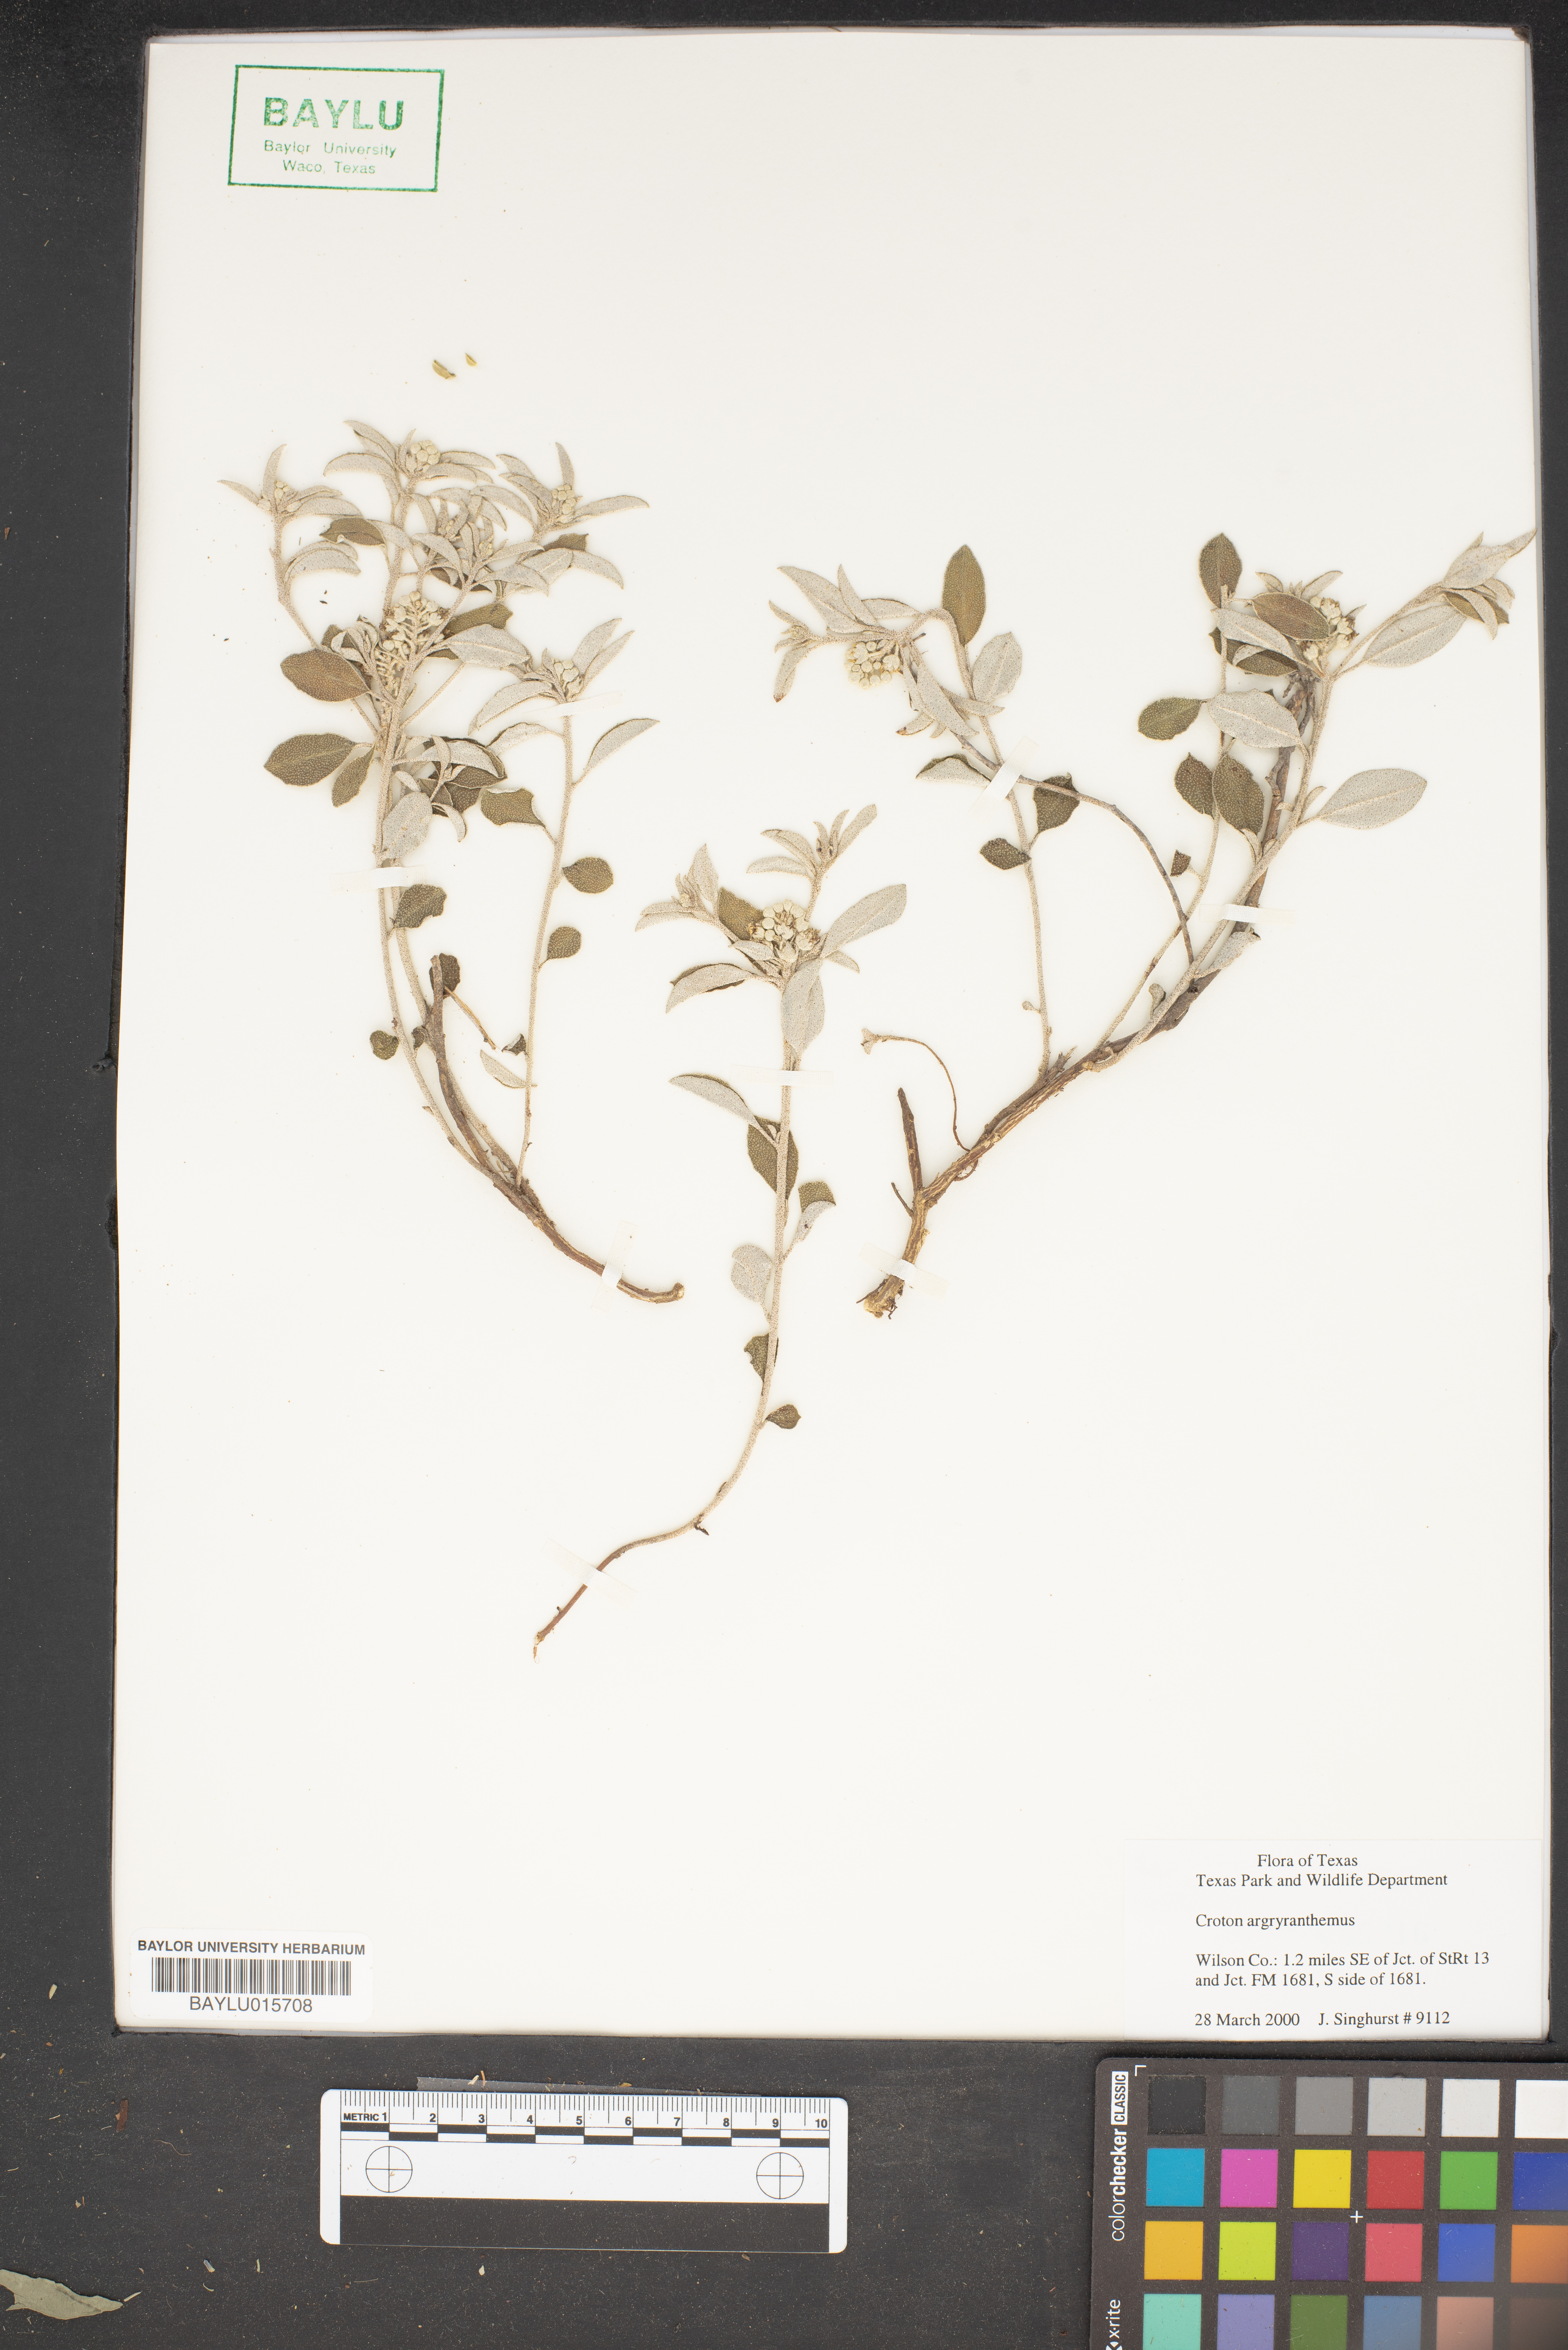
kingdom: Plantae
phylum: Tracheophyta
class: Magnoliopsida
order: Malpighiales
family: Euphorbiaceae
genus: Croton
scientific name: Croton argyranthemus
